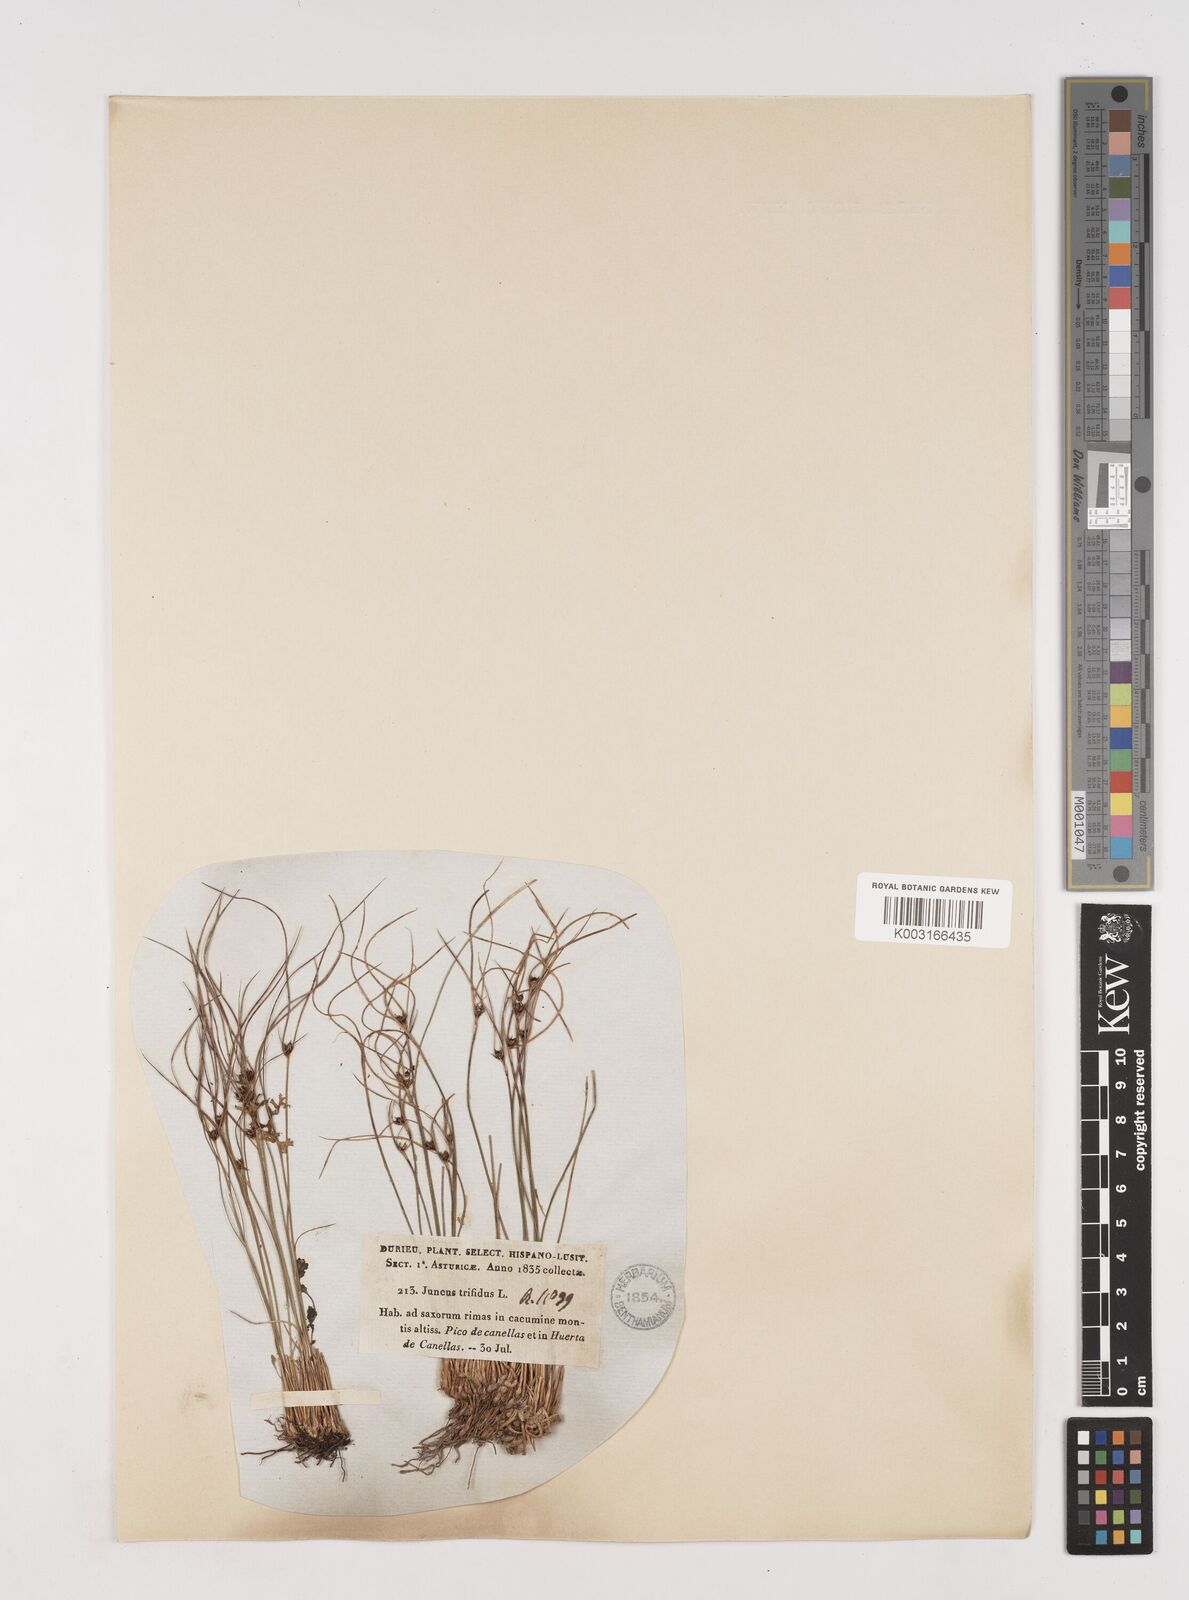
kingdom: Plantae
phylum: Tracheophyta
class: Liliopsida
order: Poales
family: Juncaceae
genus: Oreojuncus
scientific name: Oreojuncus trifidus
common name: Highland rush
